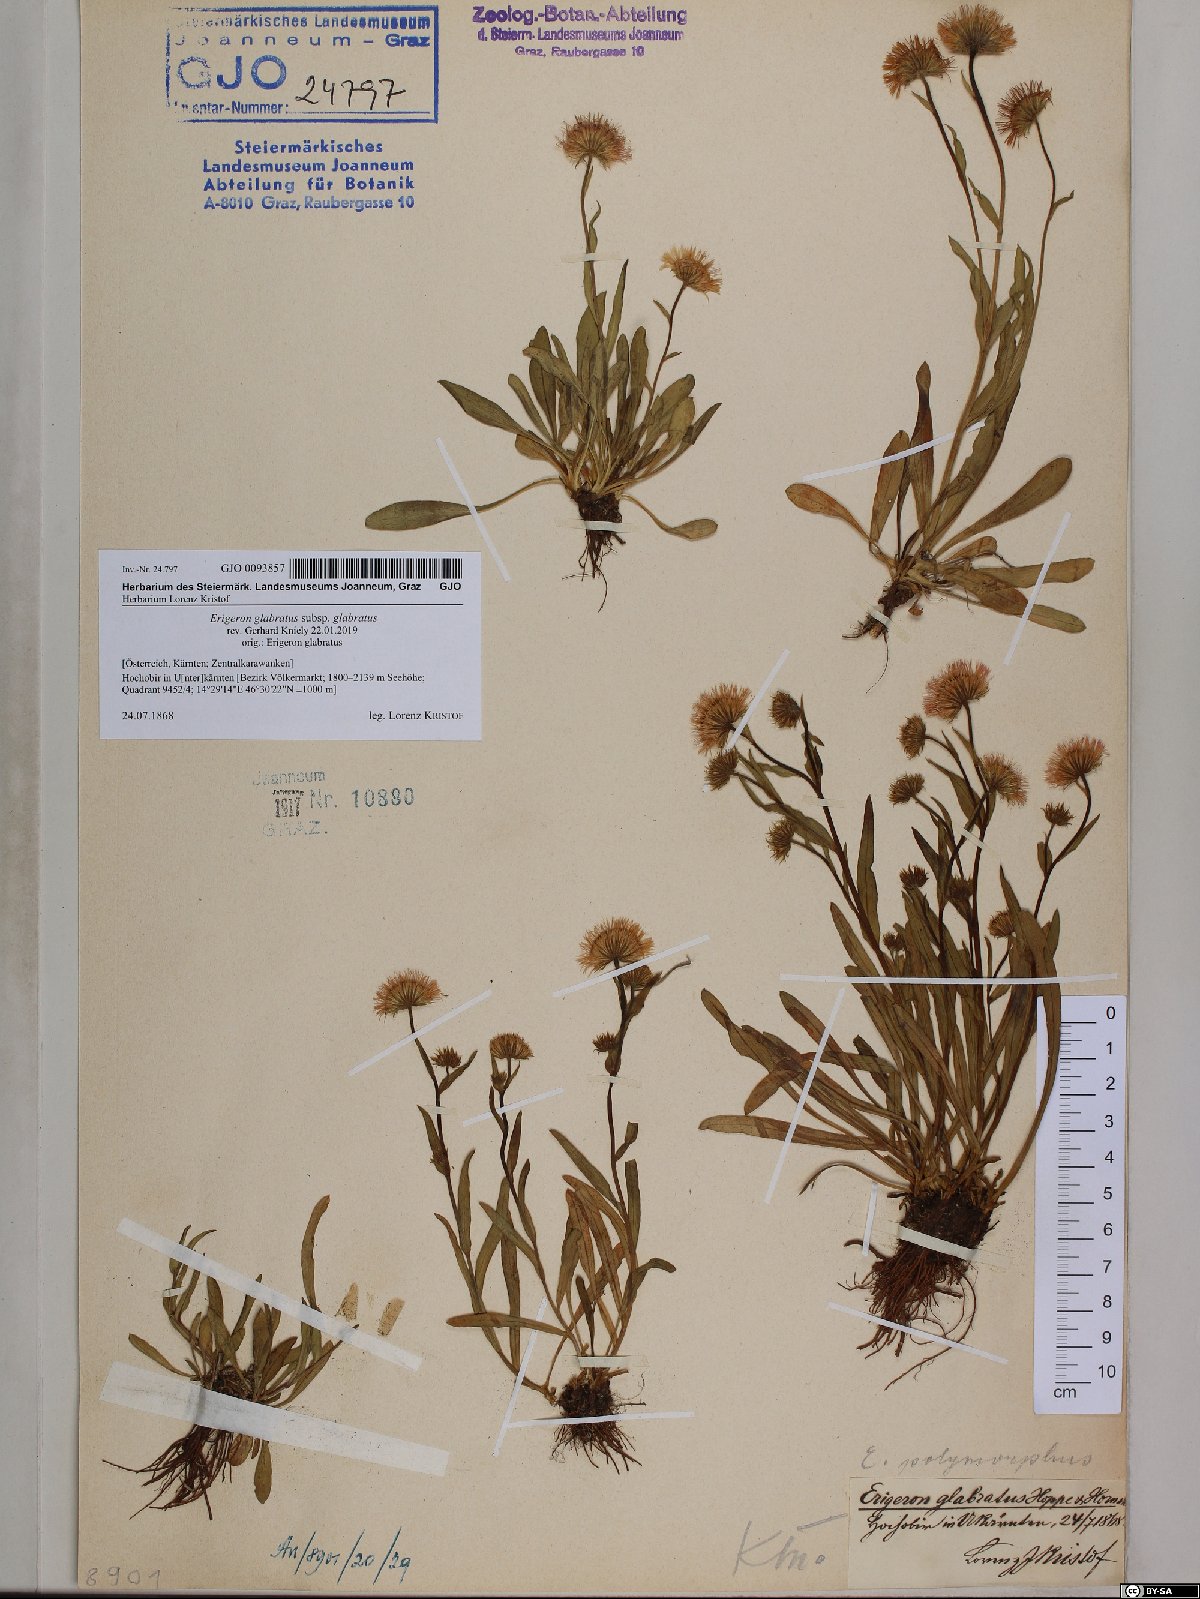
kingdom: Plantae
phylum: Tracheophyta
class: Magnoliopsida
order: Asterales
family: Asteraceae
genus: Erigeron
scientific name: Erigeron glabratus
